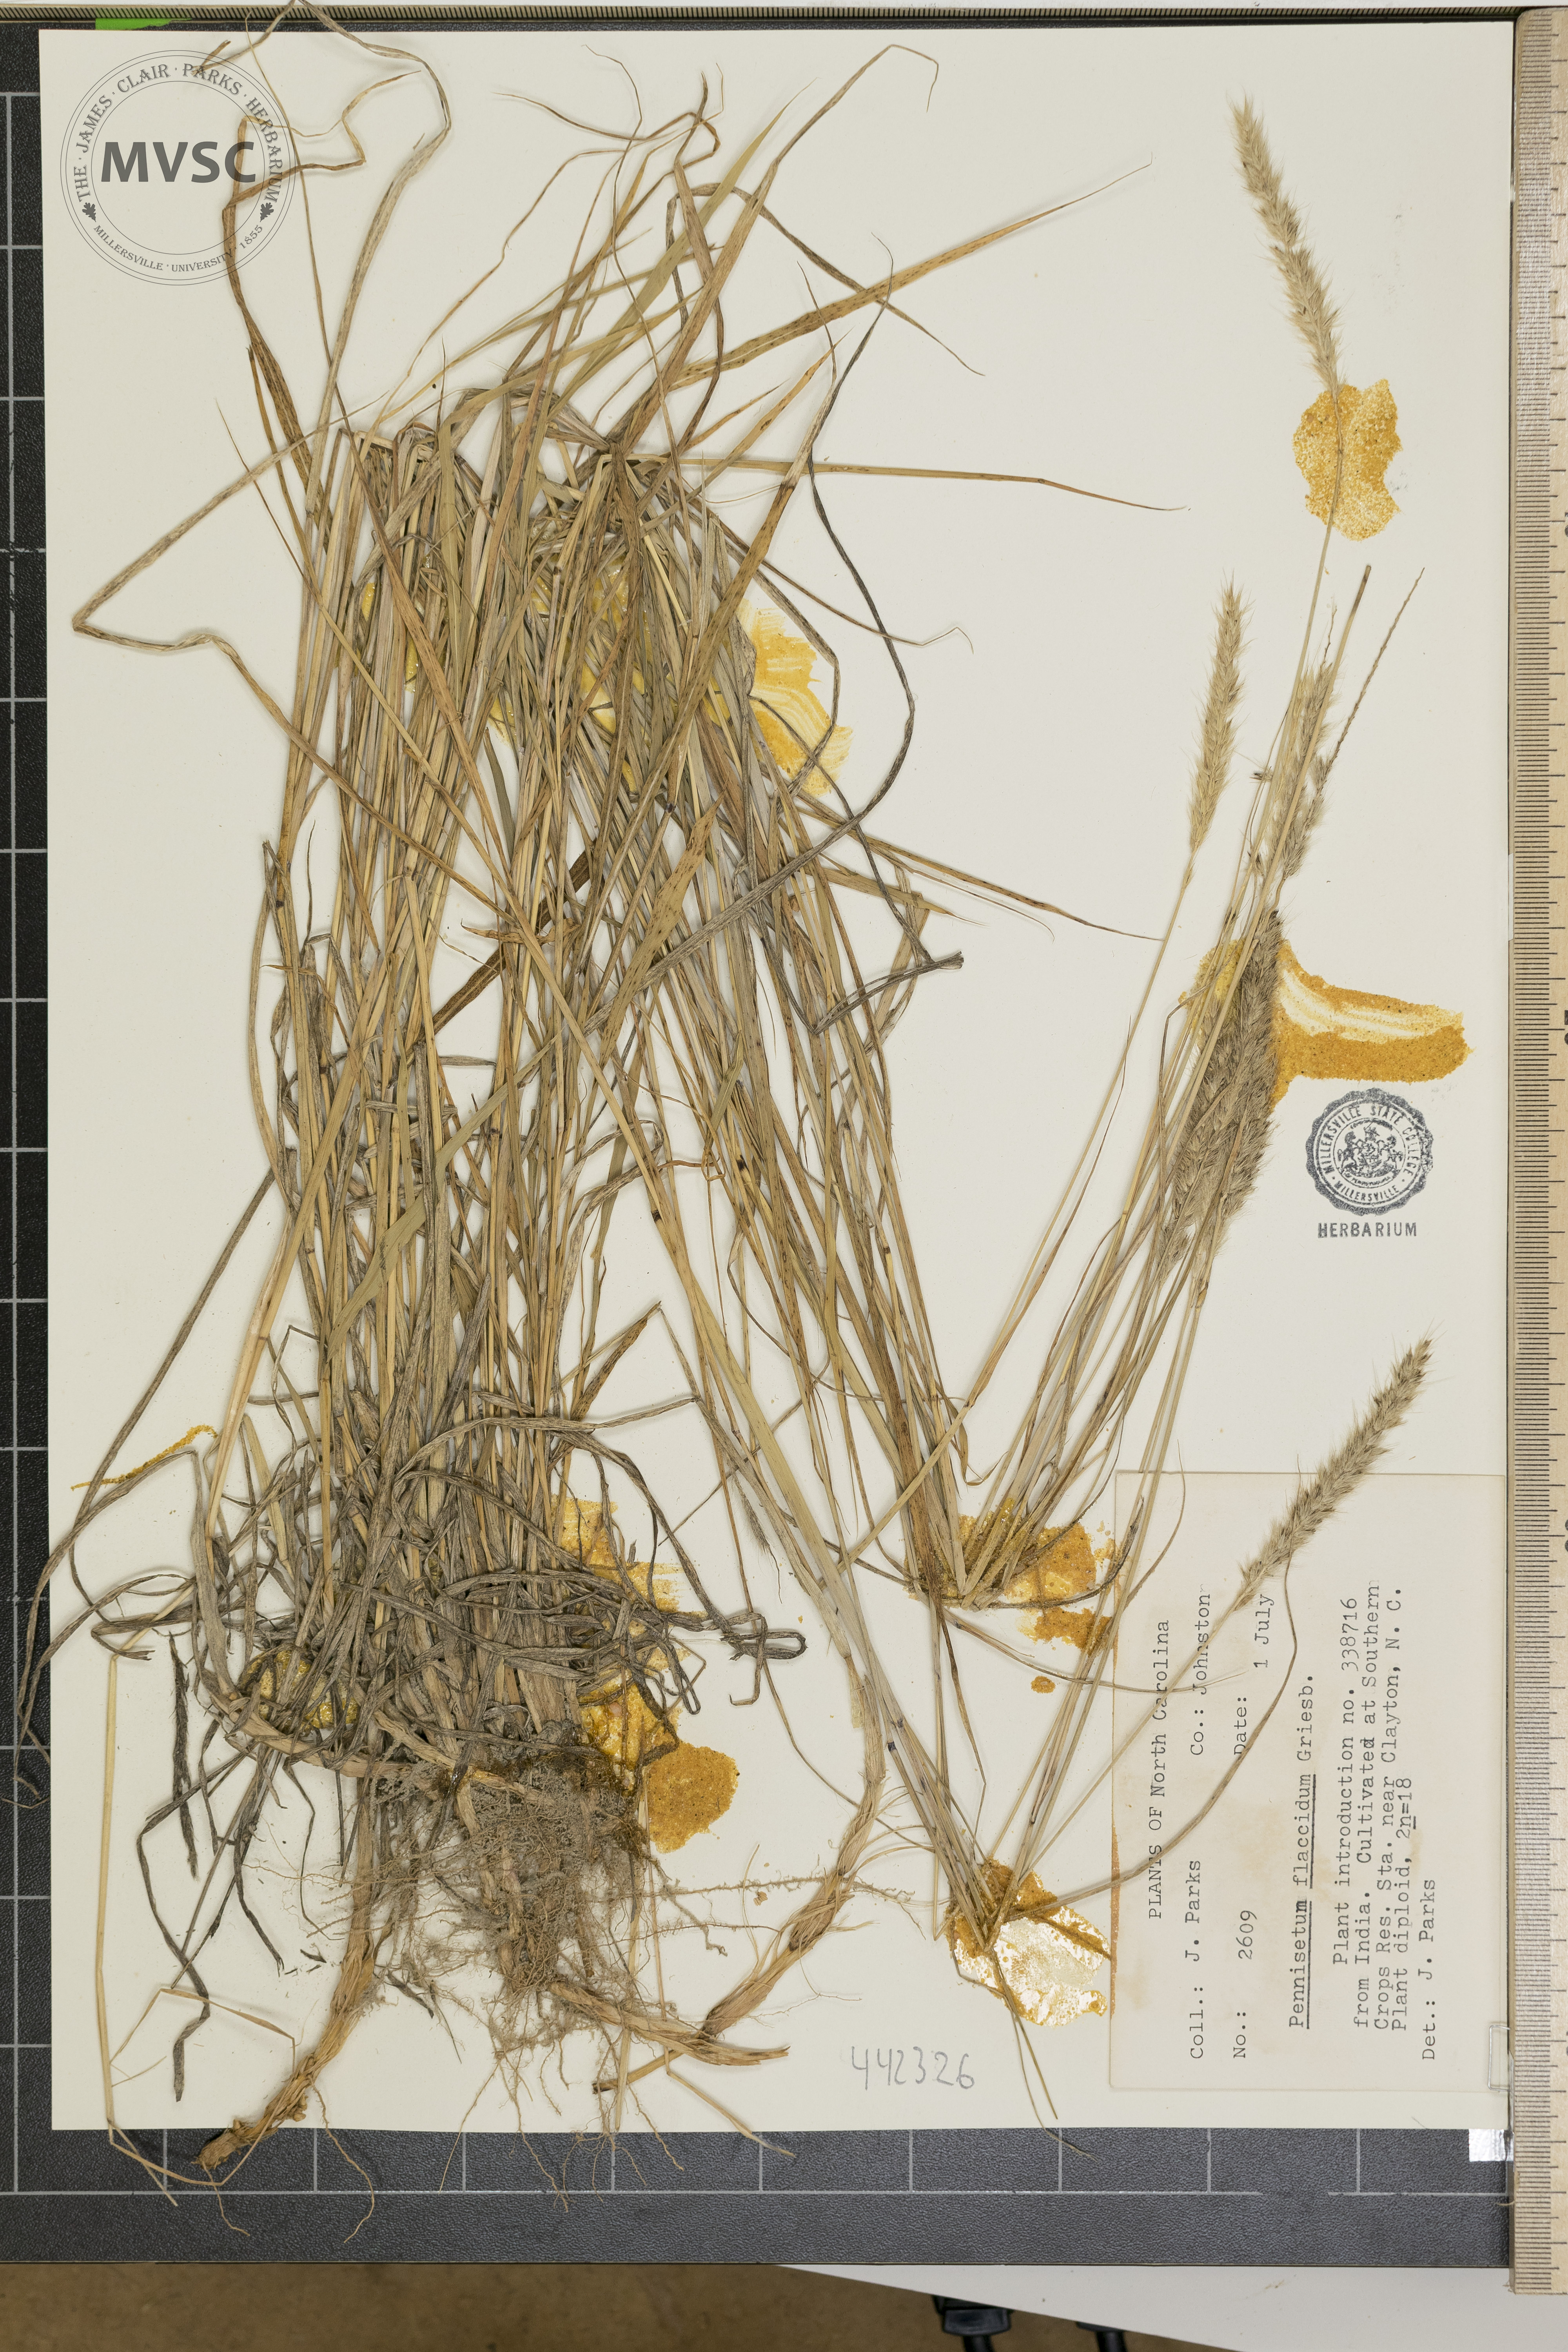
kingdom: Plantae
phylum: Tracheophyta
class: Liliopsida
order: Poales
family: Poaceae
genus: Cenchrus
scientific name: Cenchrus flaccidus
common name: Flaccid grass
